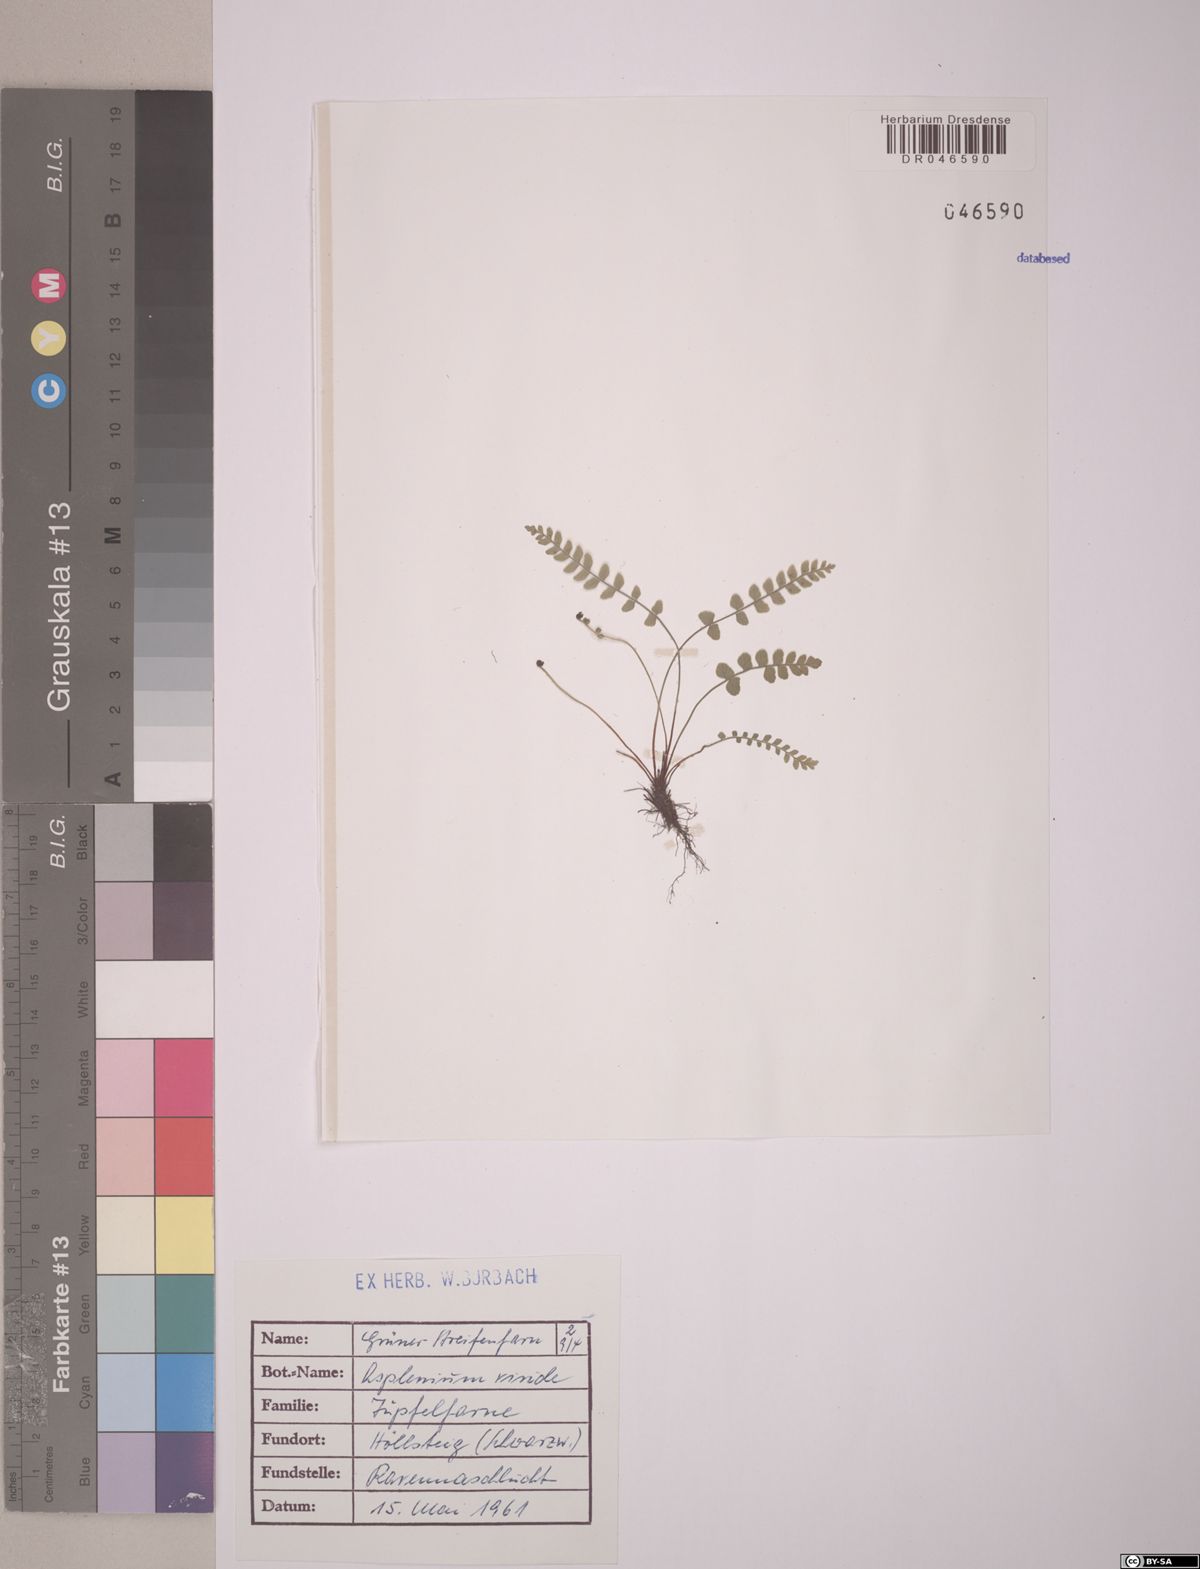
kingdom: Plantae
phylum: Tracheophyta
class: Polypodiopsida
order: Polypodiales
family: Aspleniaceae
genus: Asplenium
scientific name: Asplenium viride
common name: Green spleenwort
